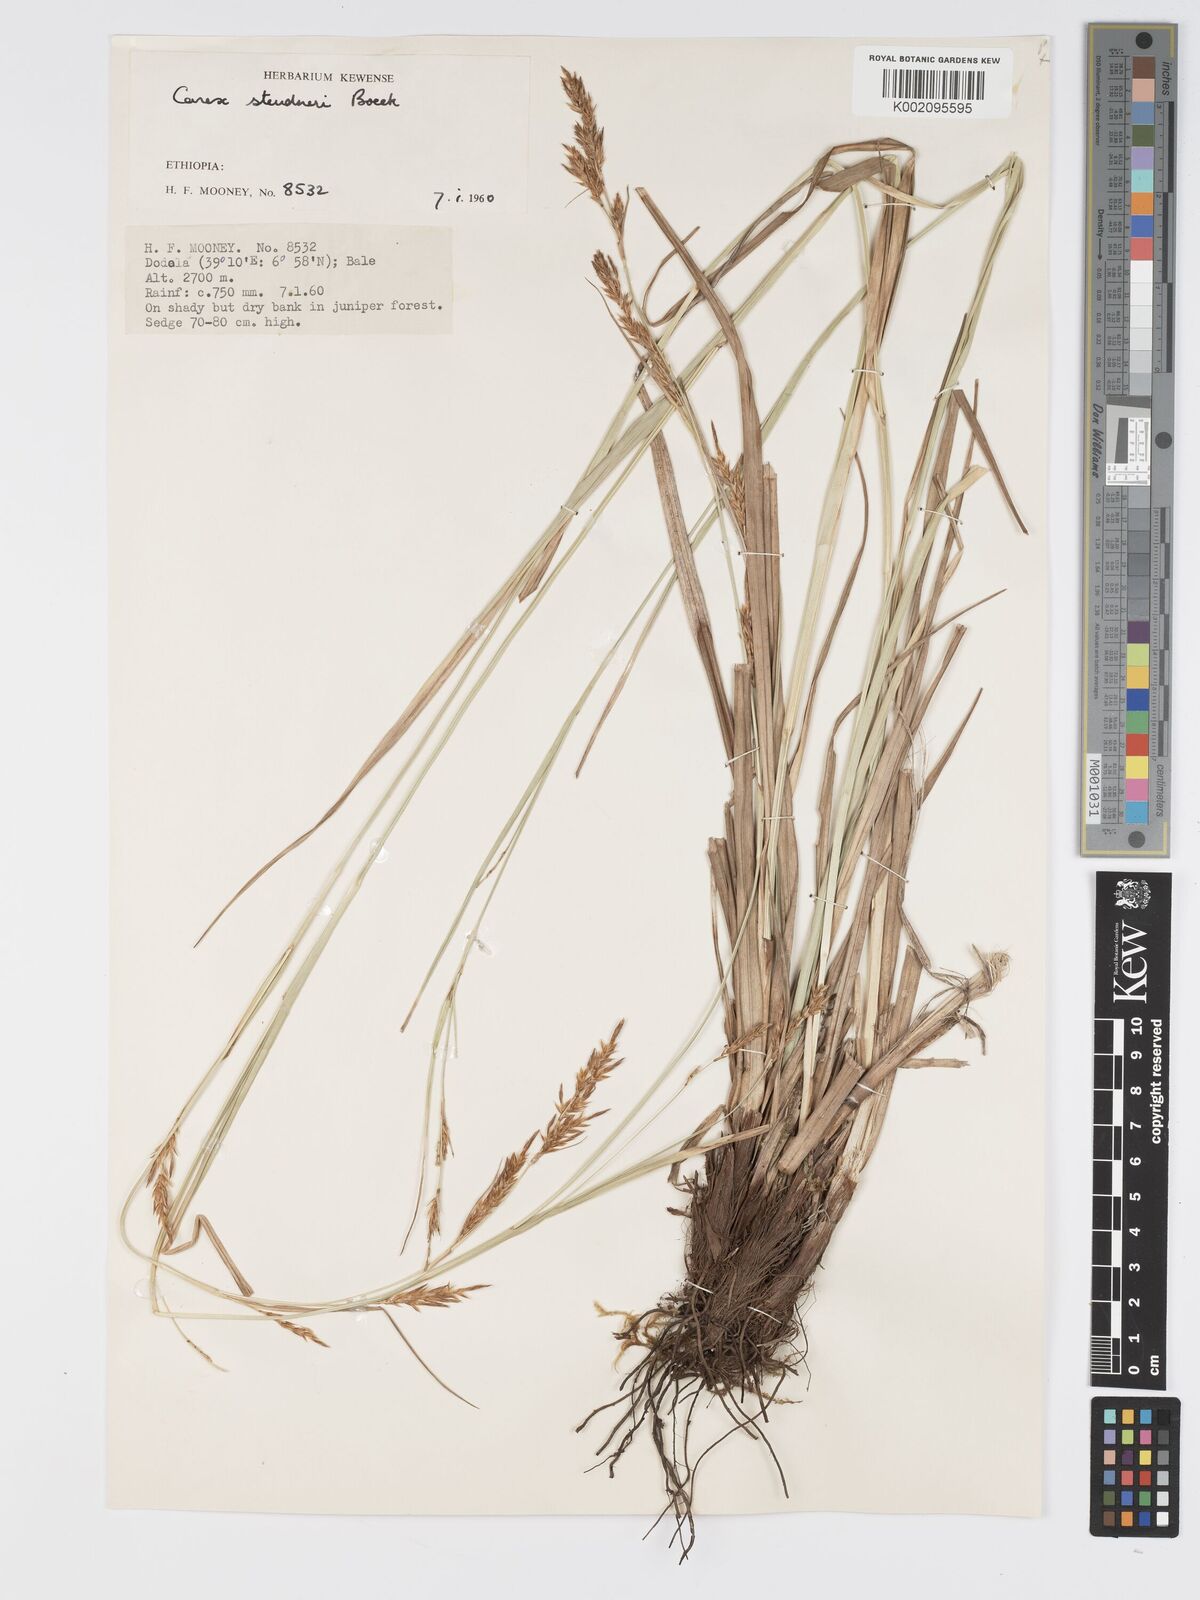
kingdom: Plantae
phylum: Tracheophyta
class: Liliopsida
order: Poales
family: Cyperaceae
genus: Carex
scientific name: Carex steudneri
